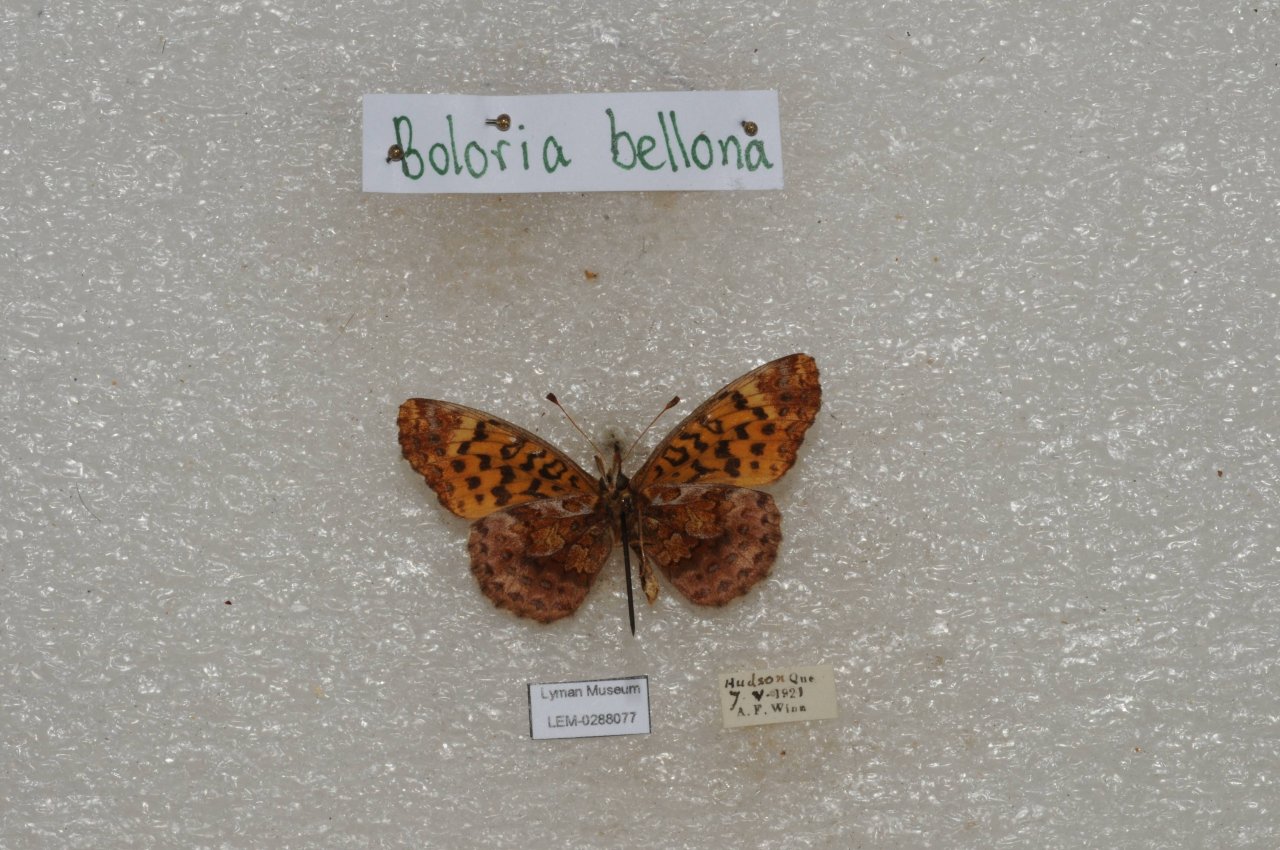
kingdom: Animalia
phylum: Arthropoda
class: Insecta
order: Lepidoptera
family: Nymphalidae
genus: Clossiana
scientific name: Clossiana toddi
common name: Meadow Fritillary
